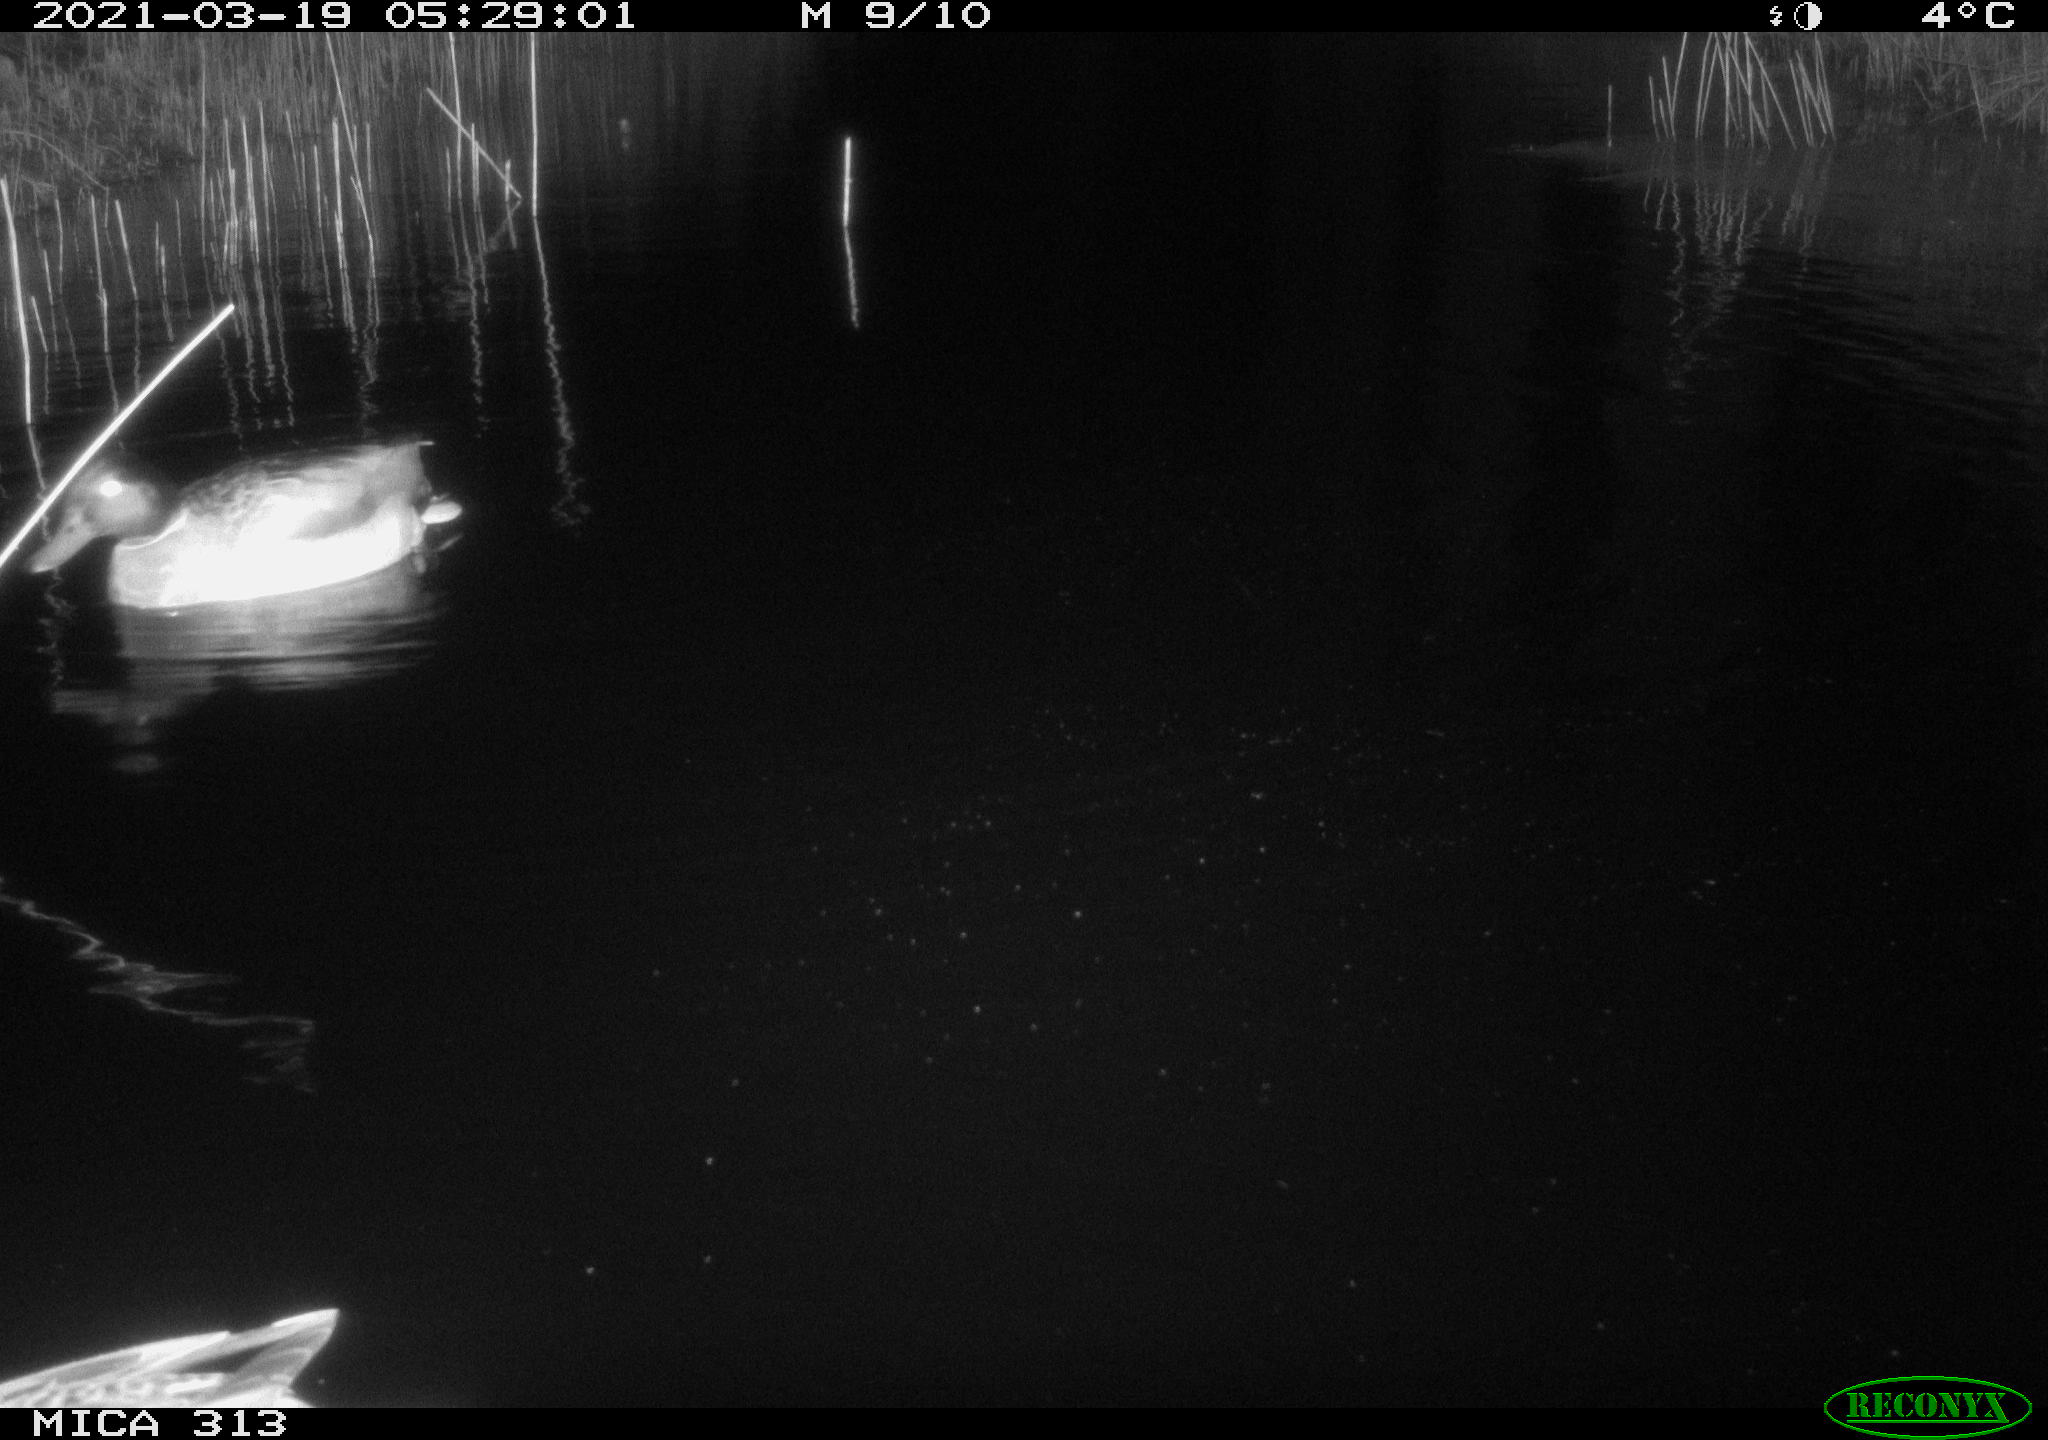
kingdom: Animalia
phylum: Chordata
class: Aves
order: Anseriformes
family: Anatidae
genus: Anas
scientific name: Anas platyrhynchos
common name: Mallard
